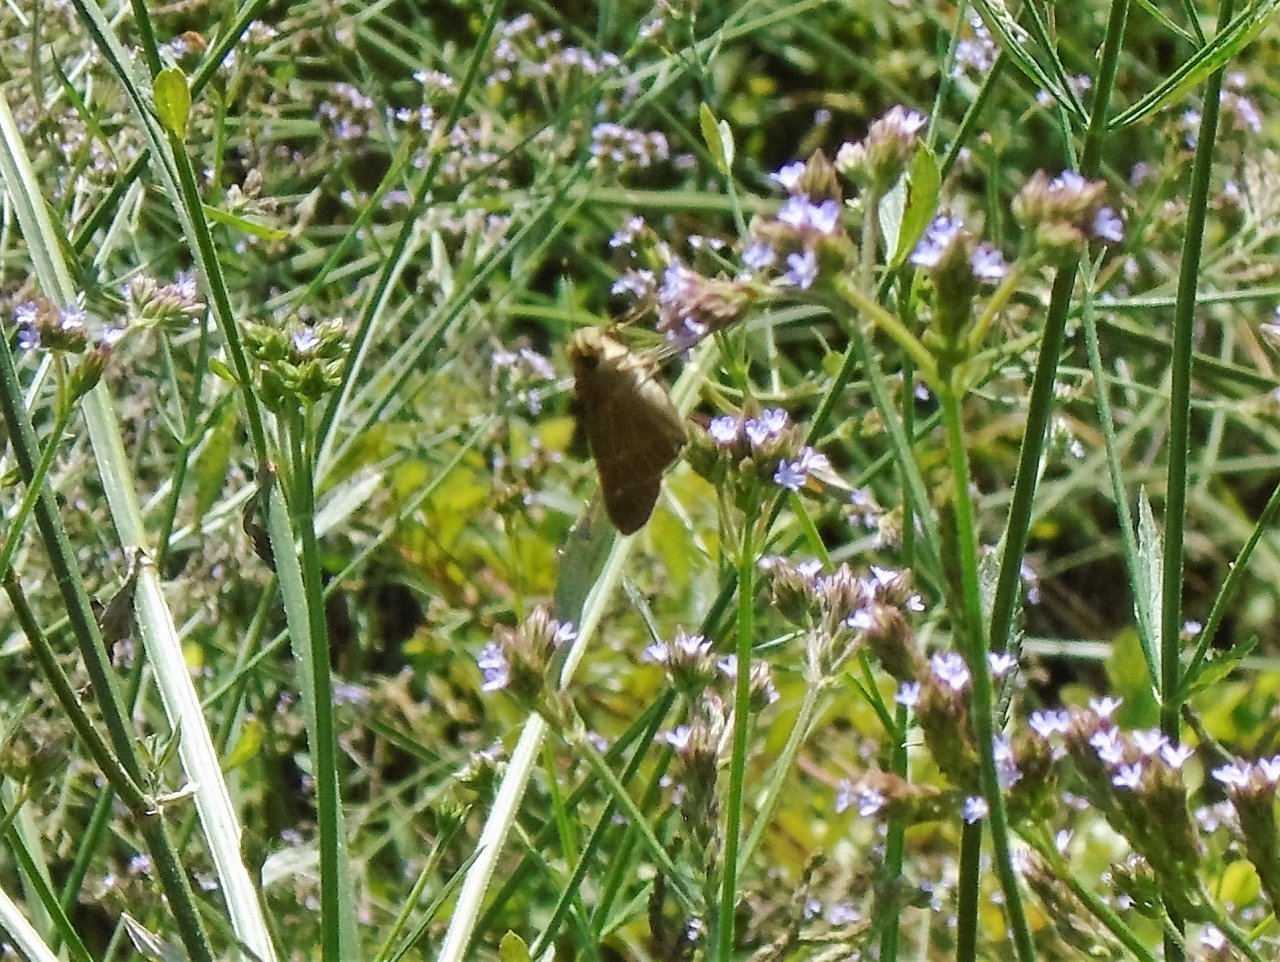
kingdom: Animalia
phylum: Arthropoda
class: Insecta
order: Lepidoptera
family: Hesperiidae
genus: Panoquina
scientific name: Panoquina ocola
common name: Ocola Skipper
